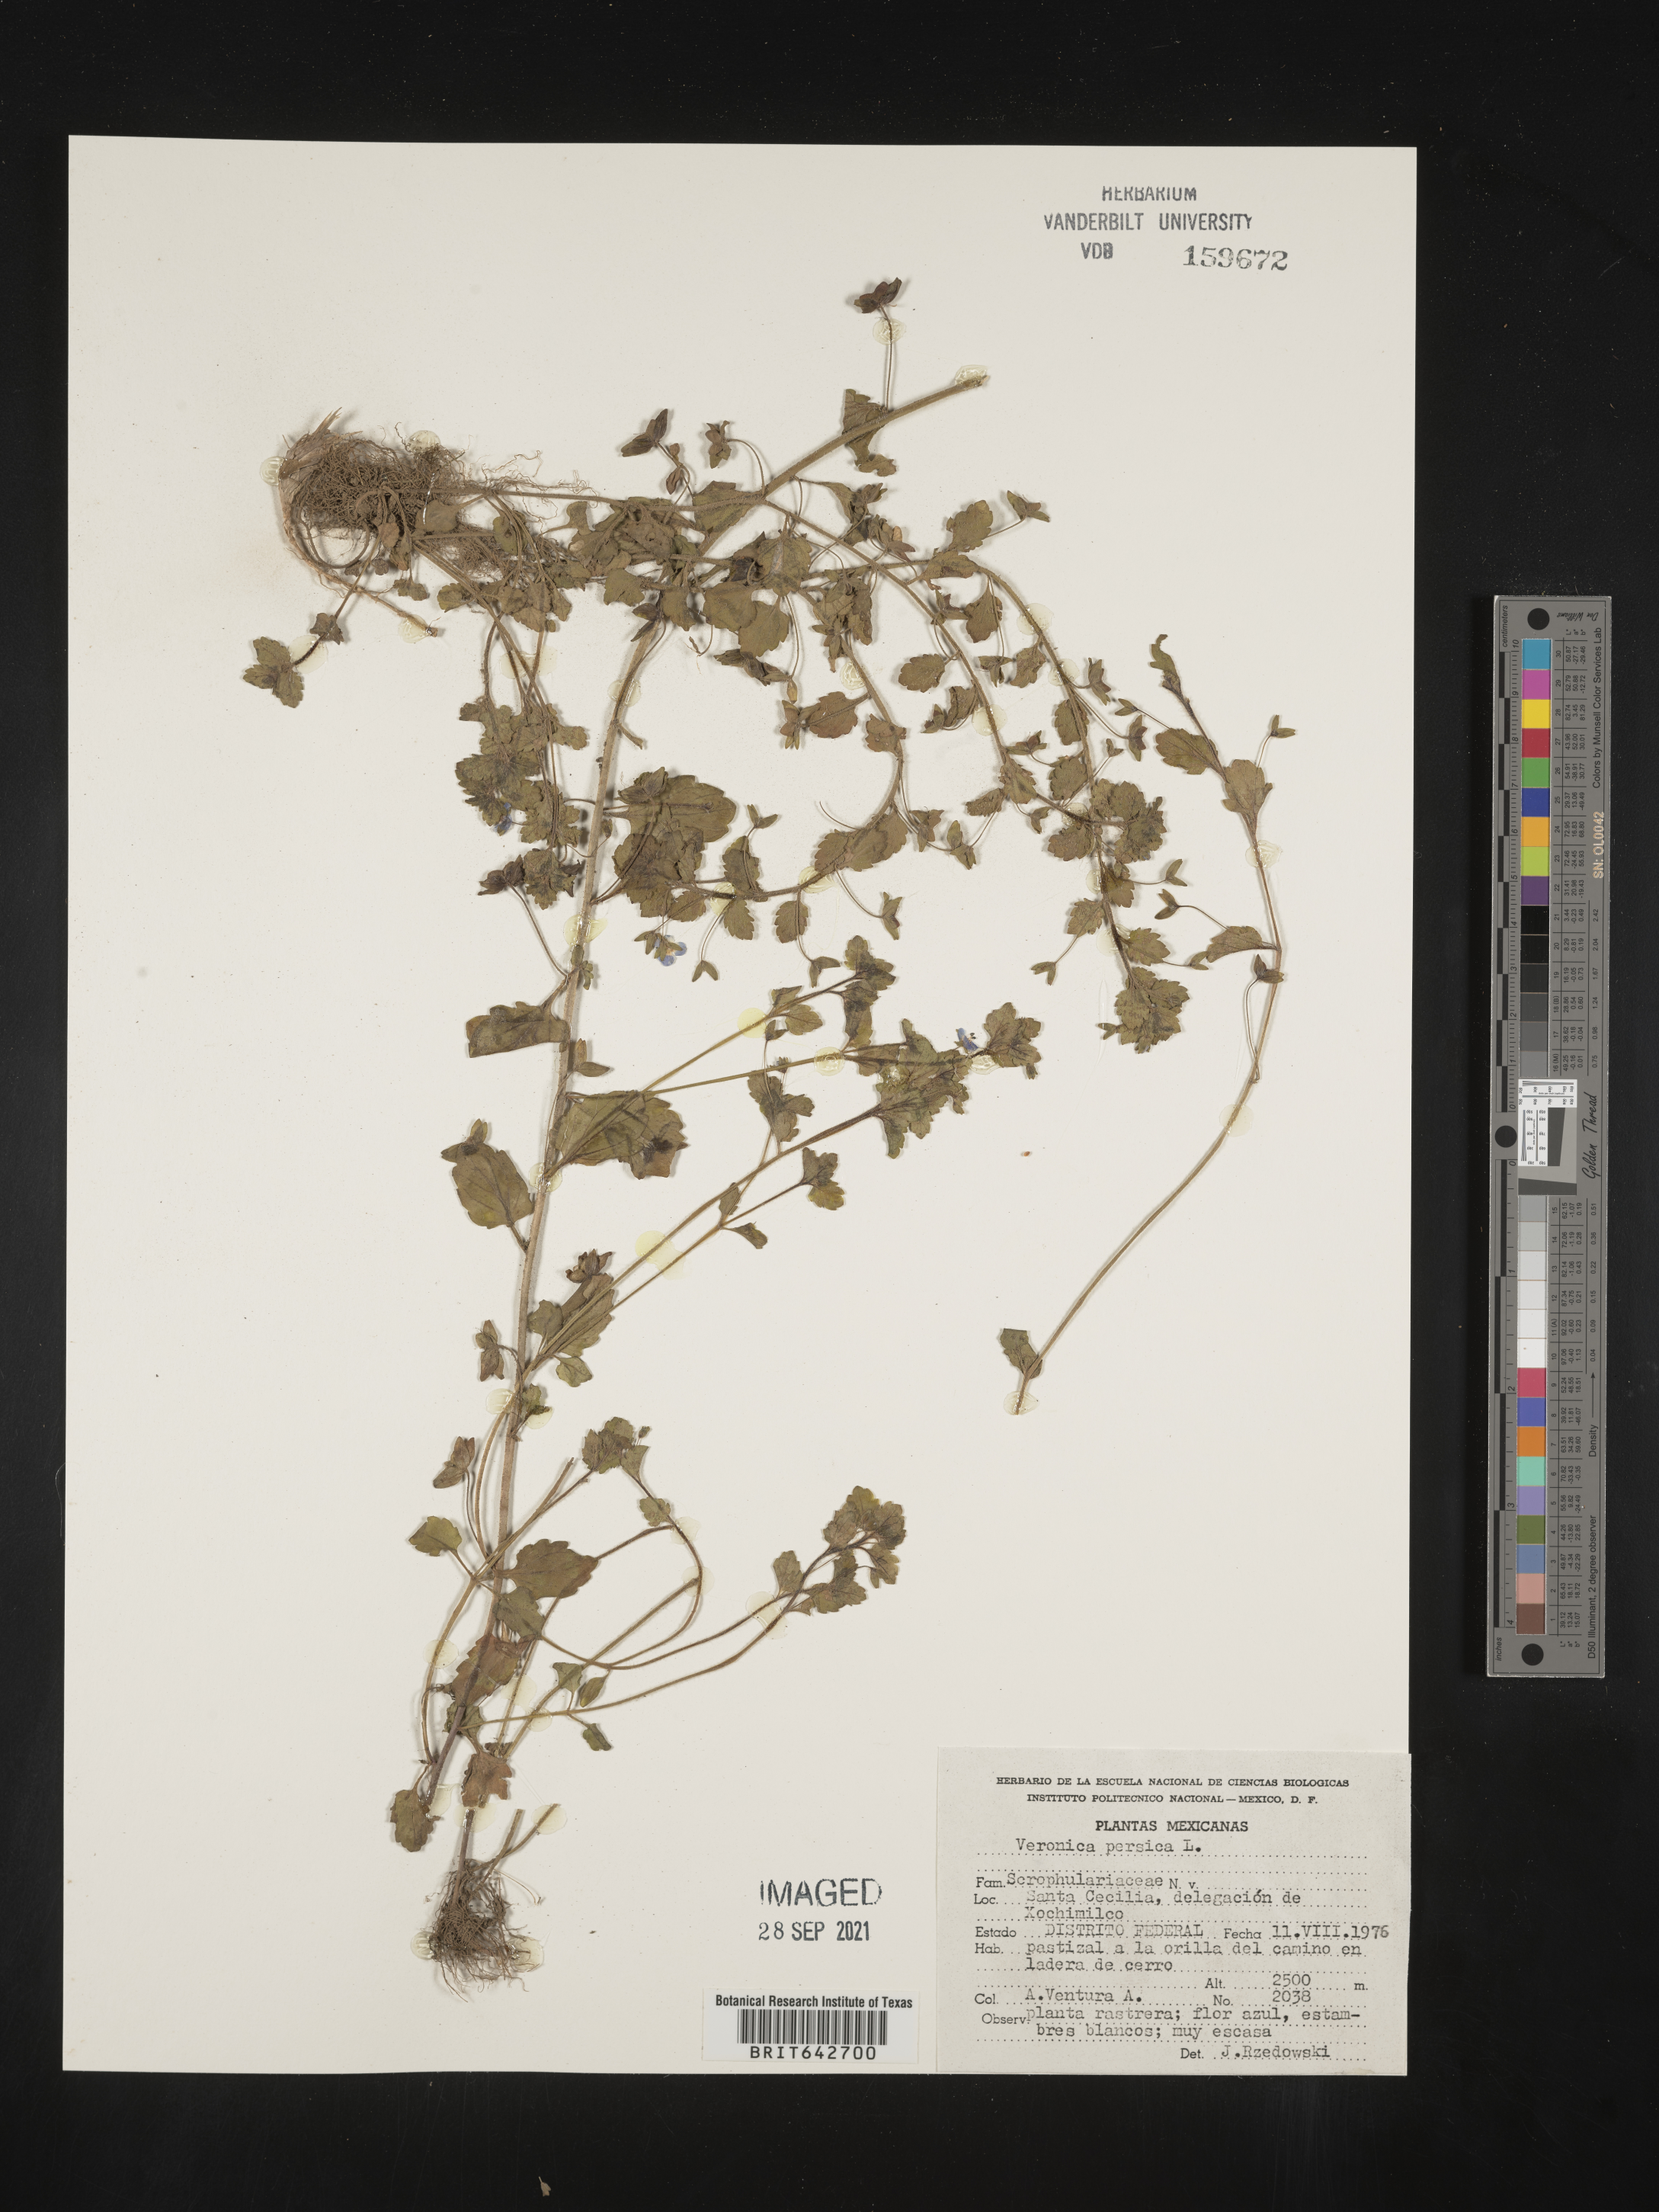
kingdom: Plantae
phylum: Tracheophyta
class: Magnoliopsida
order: Lamiales
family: Plantaginaceae
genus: Veronica
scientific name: Veronica
